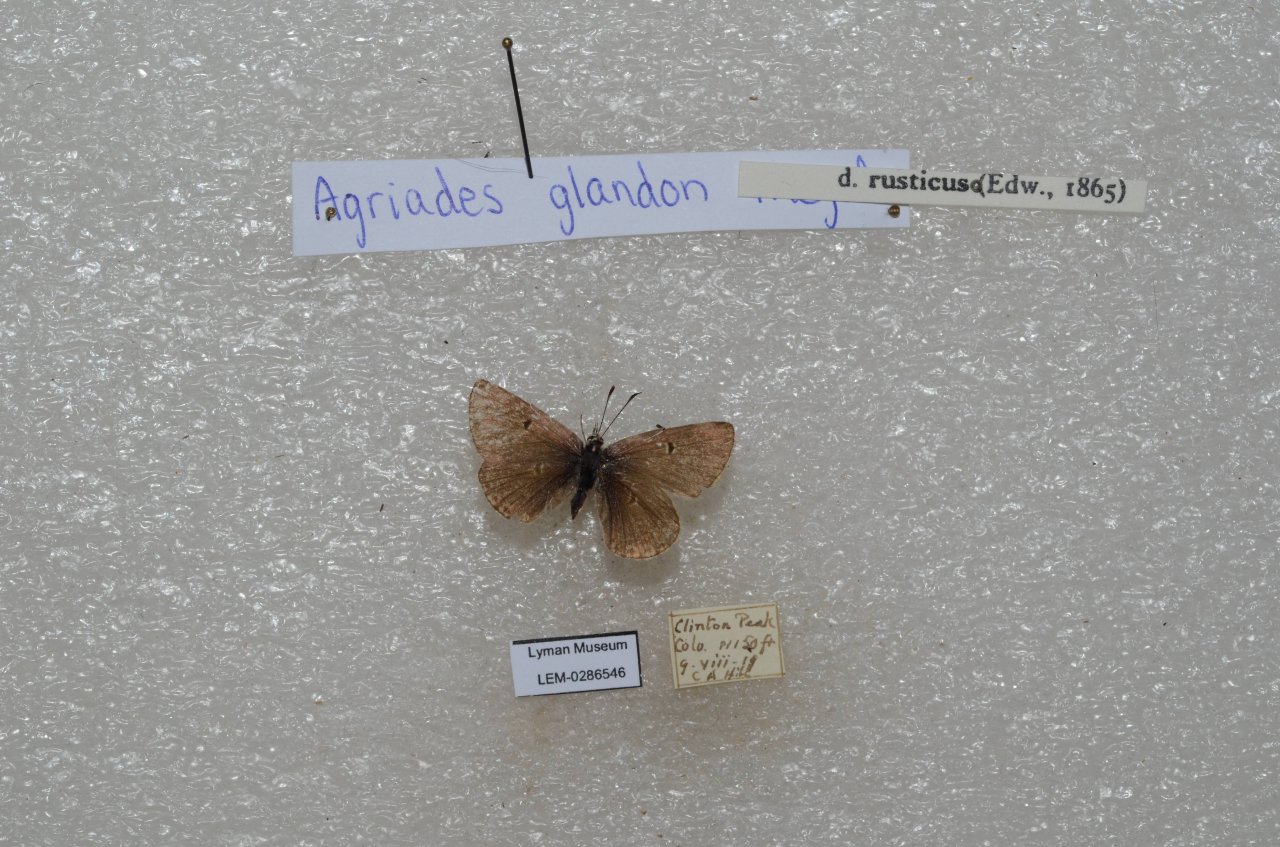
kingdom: Animalia
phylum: Arthropoda
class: Insecta
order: Lepidoptera
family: Lycaenidae
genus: Agriades
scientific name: Agriades glandon
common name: Arctic Blue
